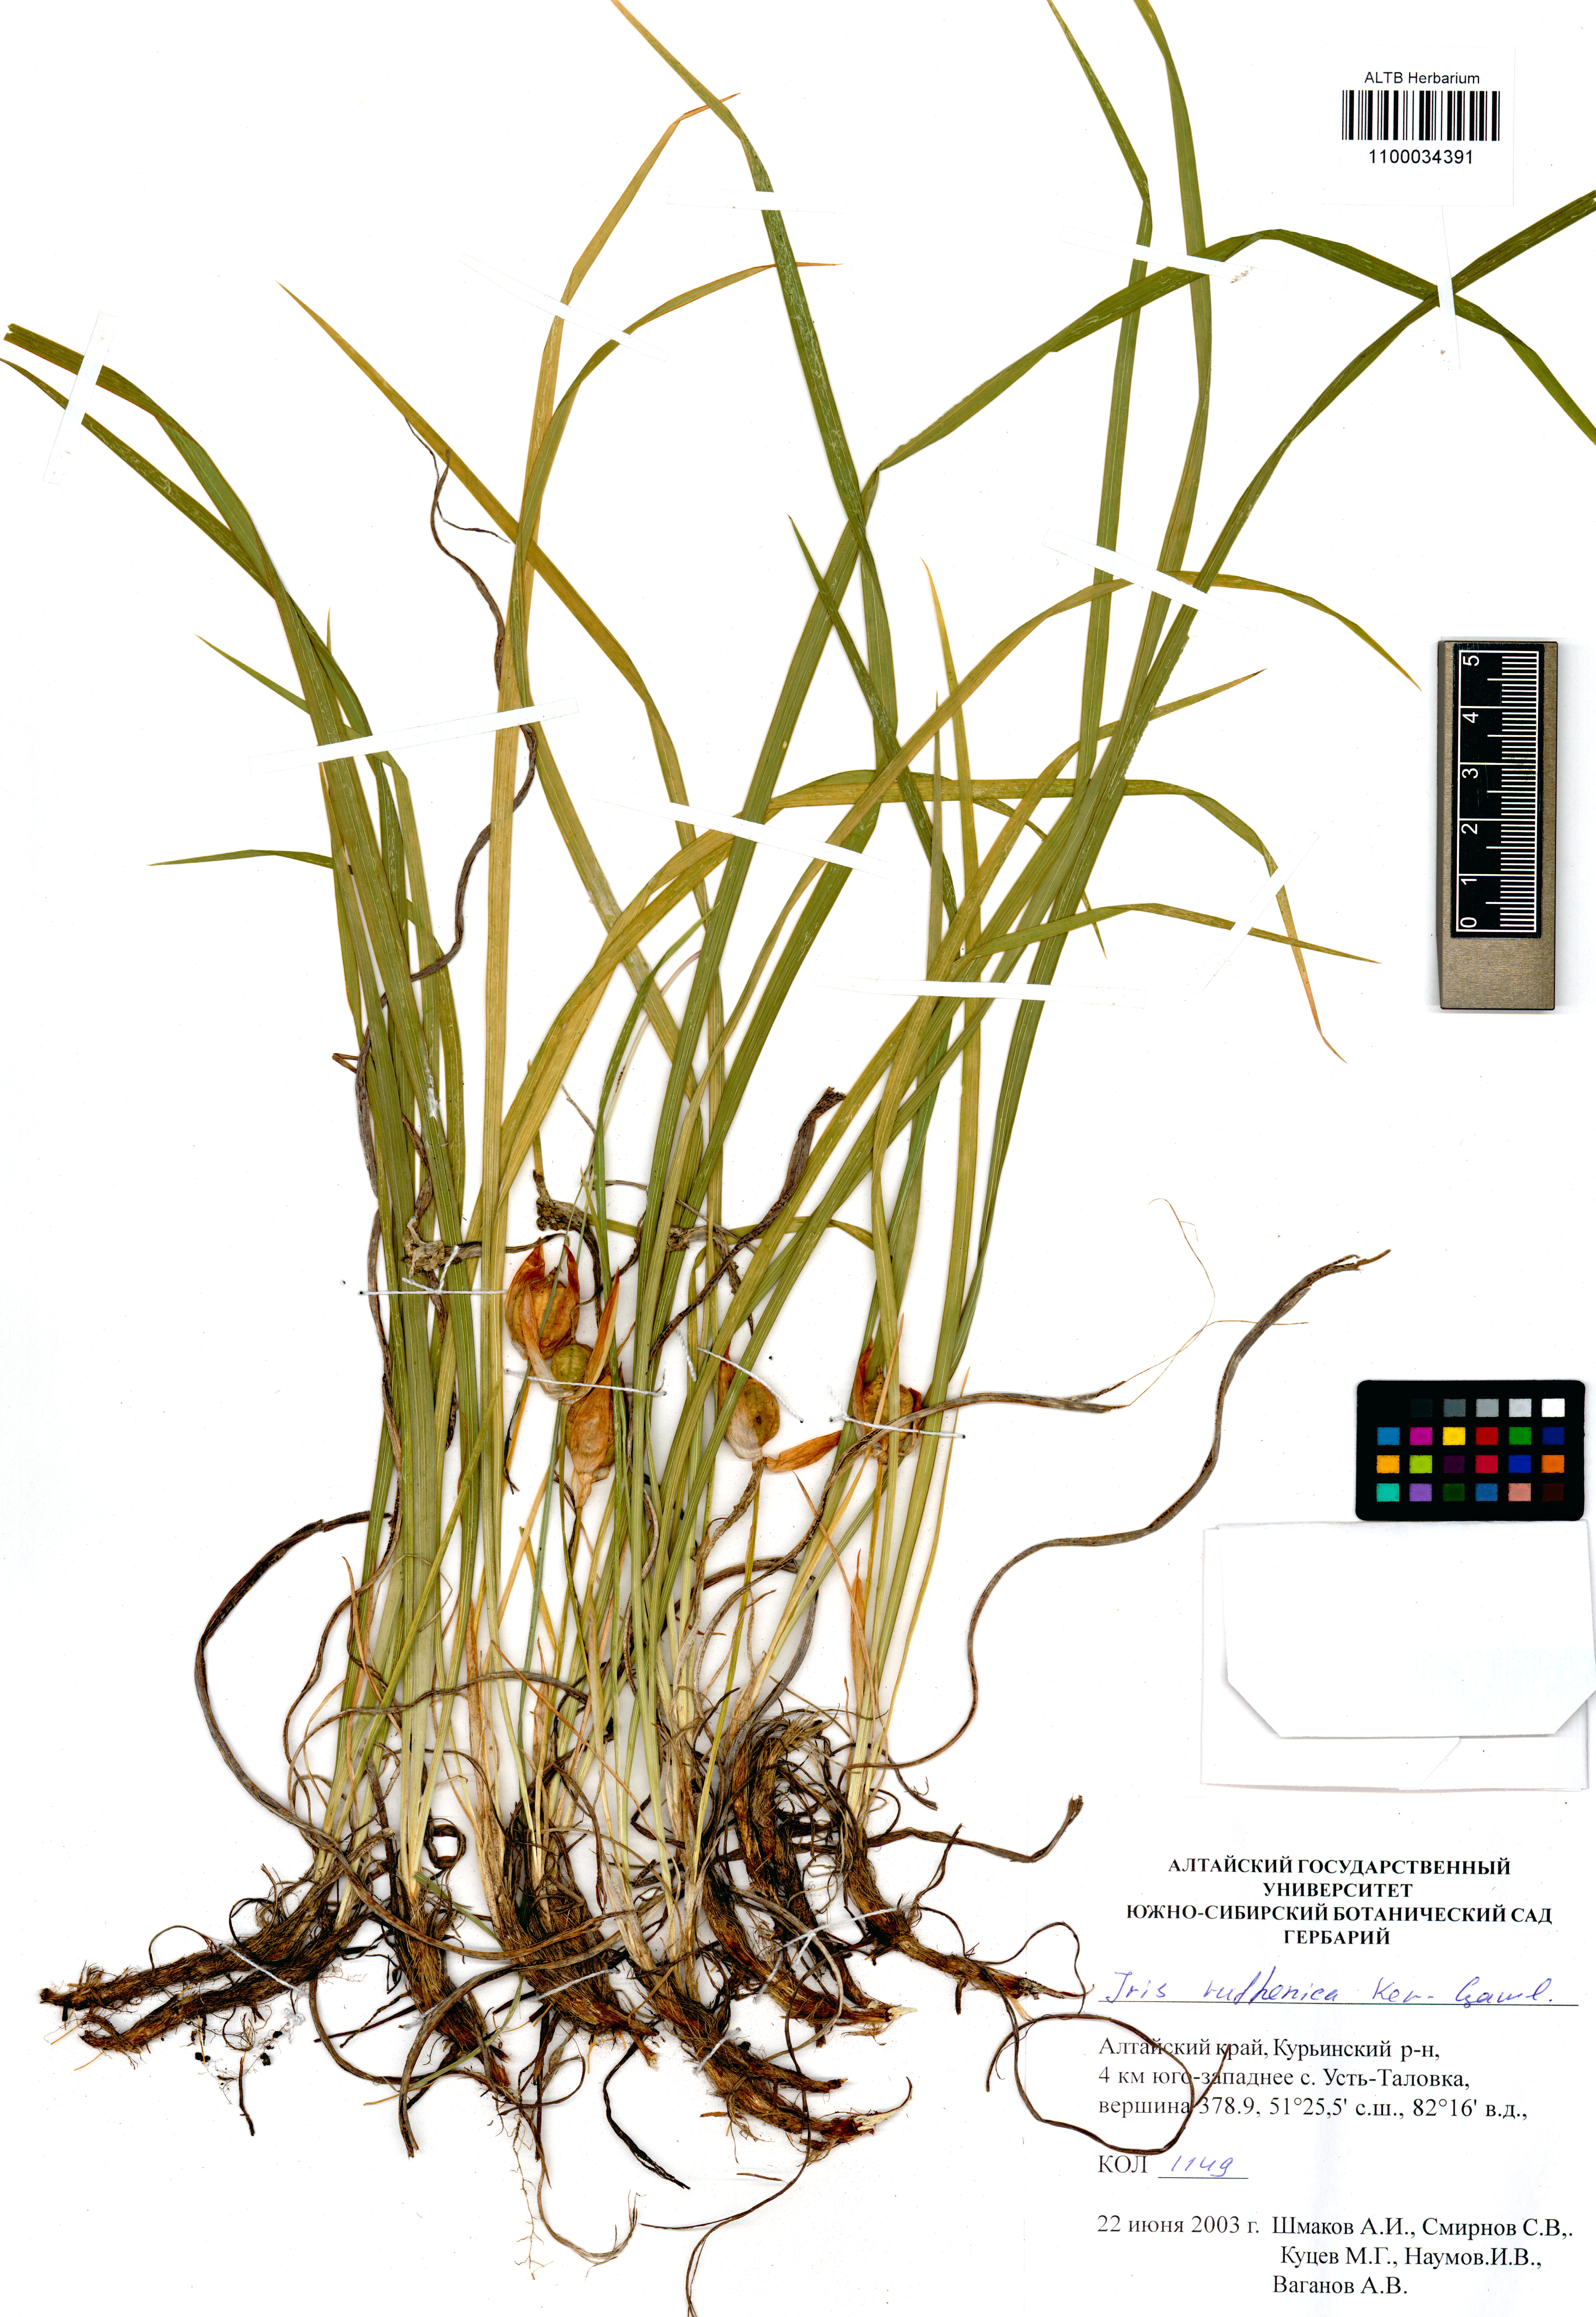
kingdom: Plantae
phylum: Tracheophyta
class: Liliopsida
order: Asparagales
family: Iridaceae
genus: Iris
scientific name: Iris ruthenica
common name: Purple-bract iris
